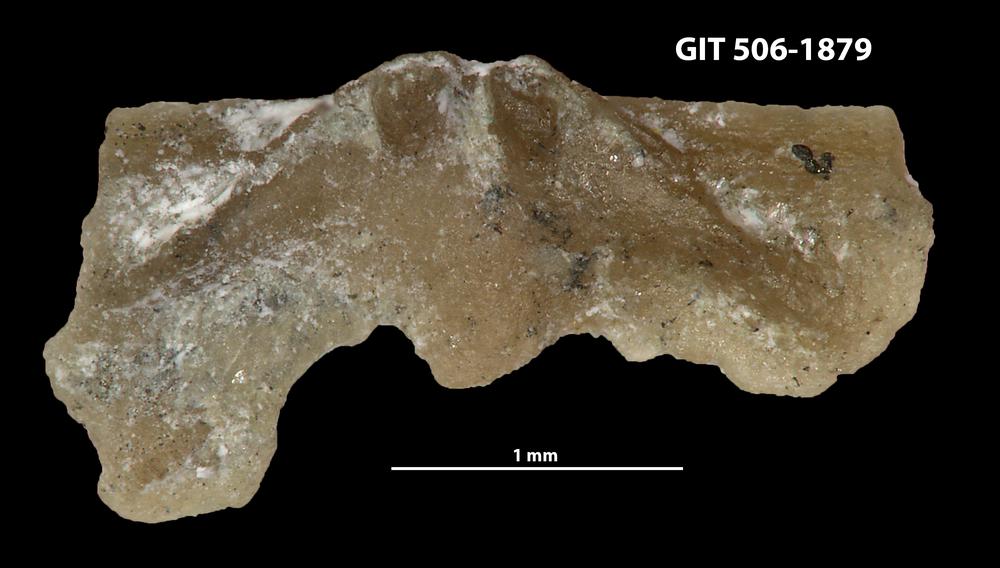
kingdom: Animalia
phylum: Brachiopoda
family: Strophomenidae
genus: Katastrophomena
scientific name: Katastrophomena woodlandensis
